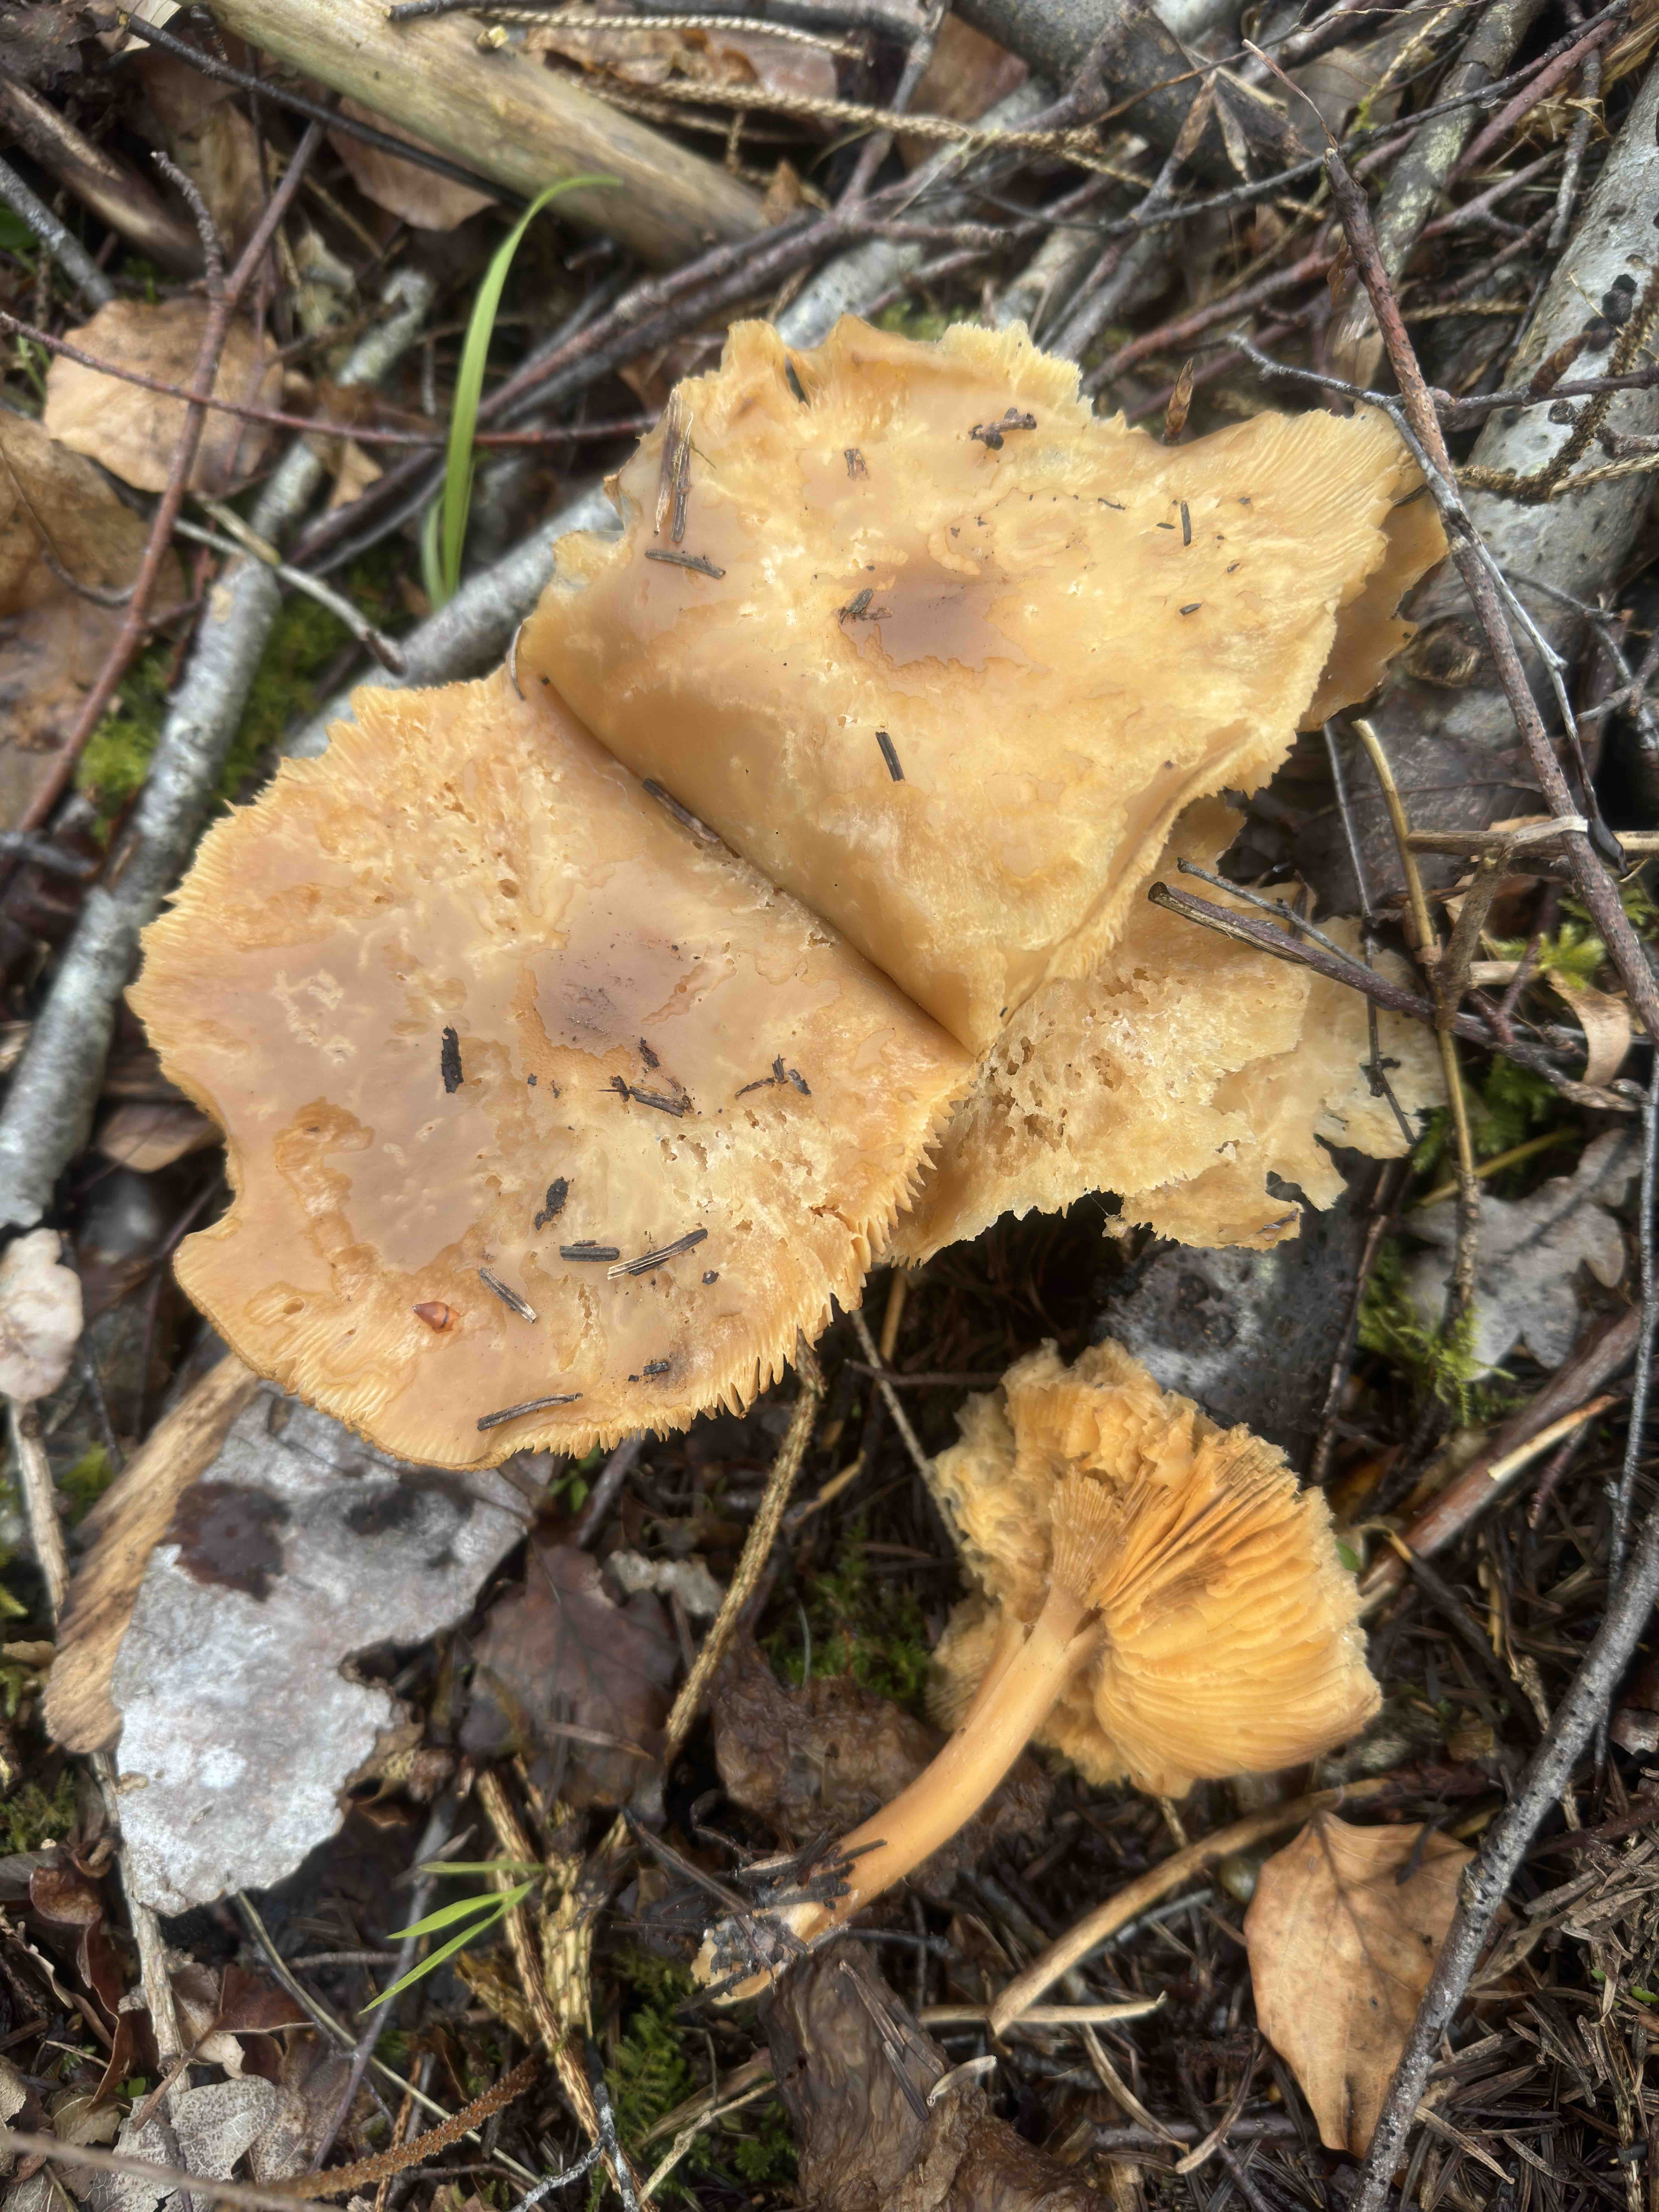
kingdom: Fungi
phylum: Basidiomycota
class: Agaricomycetes
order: Agaricales
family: Tricholomataceae
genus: Melanoleuca
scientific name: Melanoleuca cognata
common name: gyldengrå munkehat
